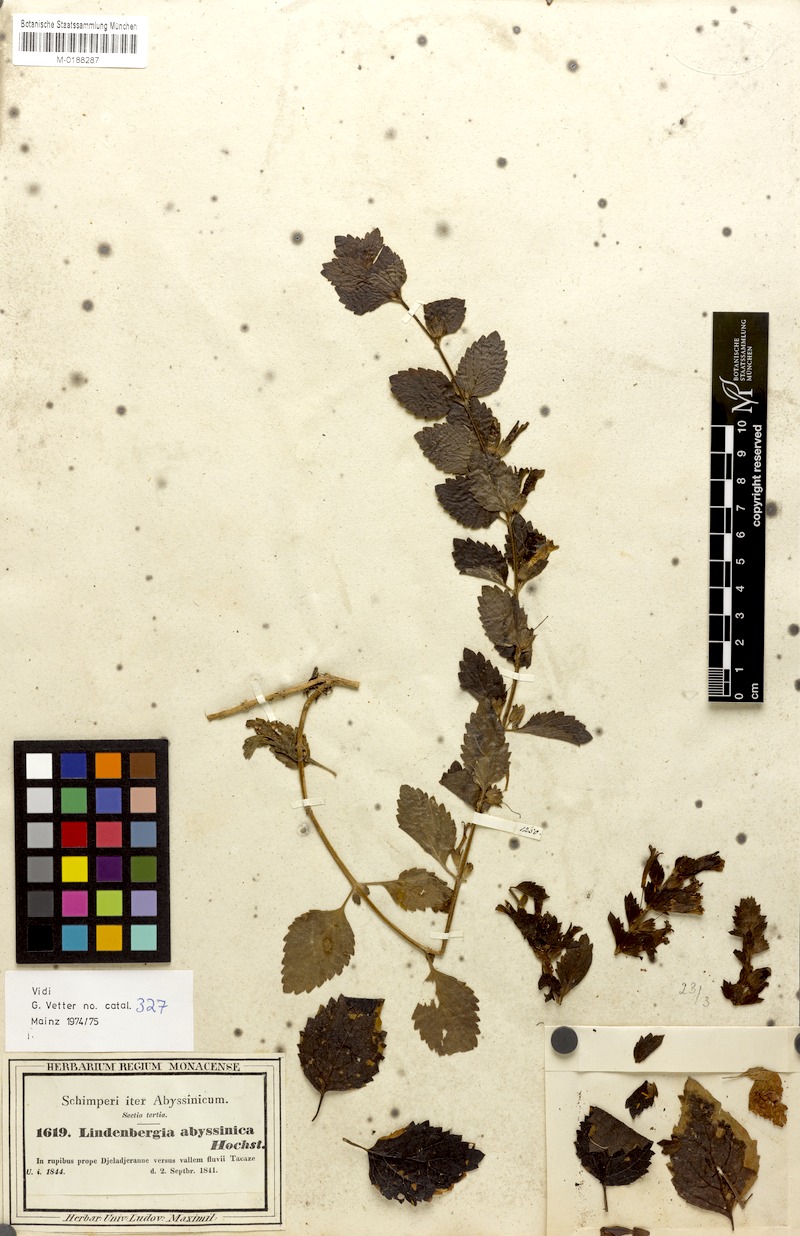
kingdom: Plantae
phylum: Tracheophyta
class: Magnoliopsida
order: Lamiales
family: Orobanchaceae
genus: Lindenbergia
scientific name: Lindenbergia indica
